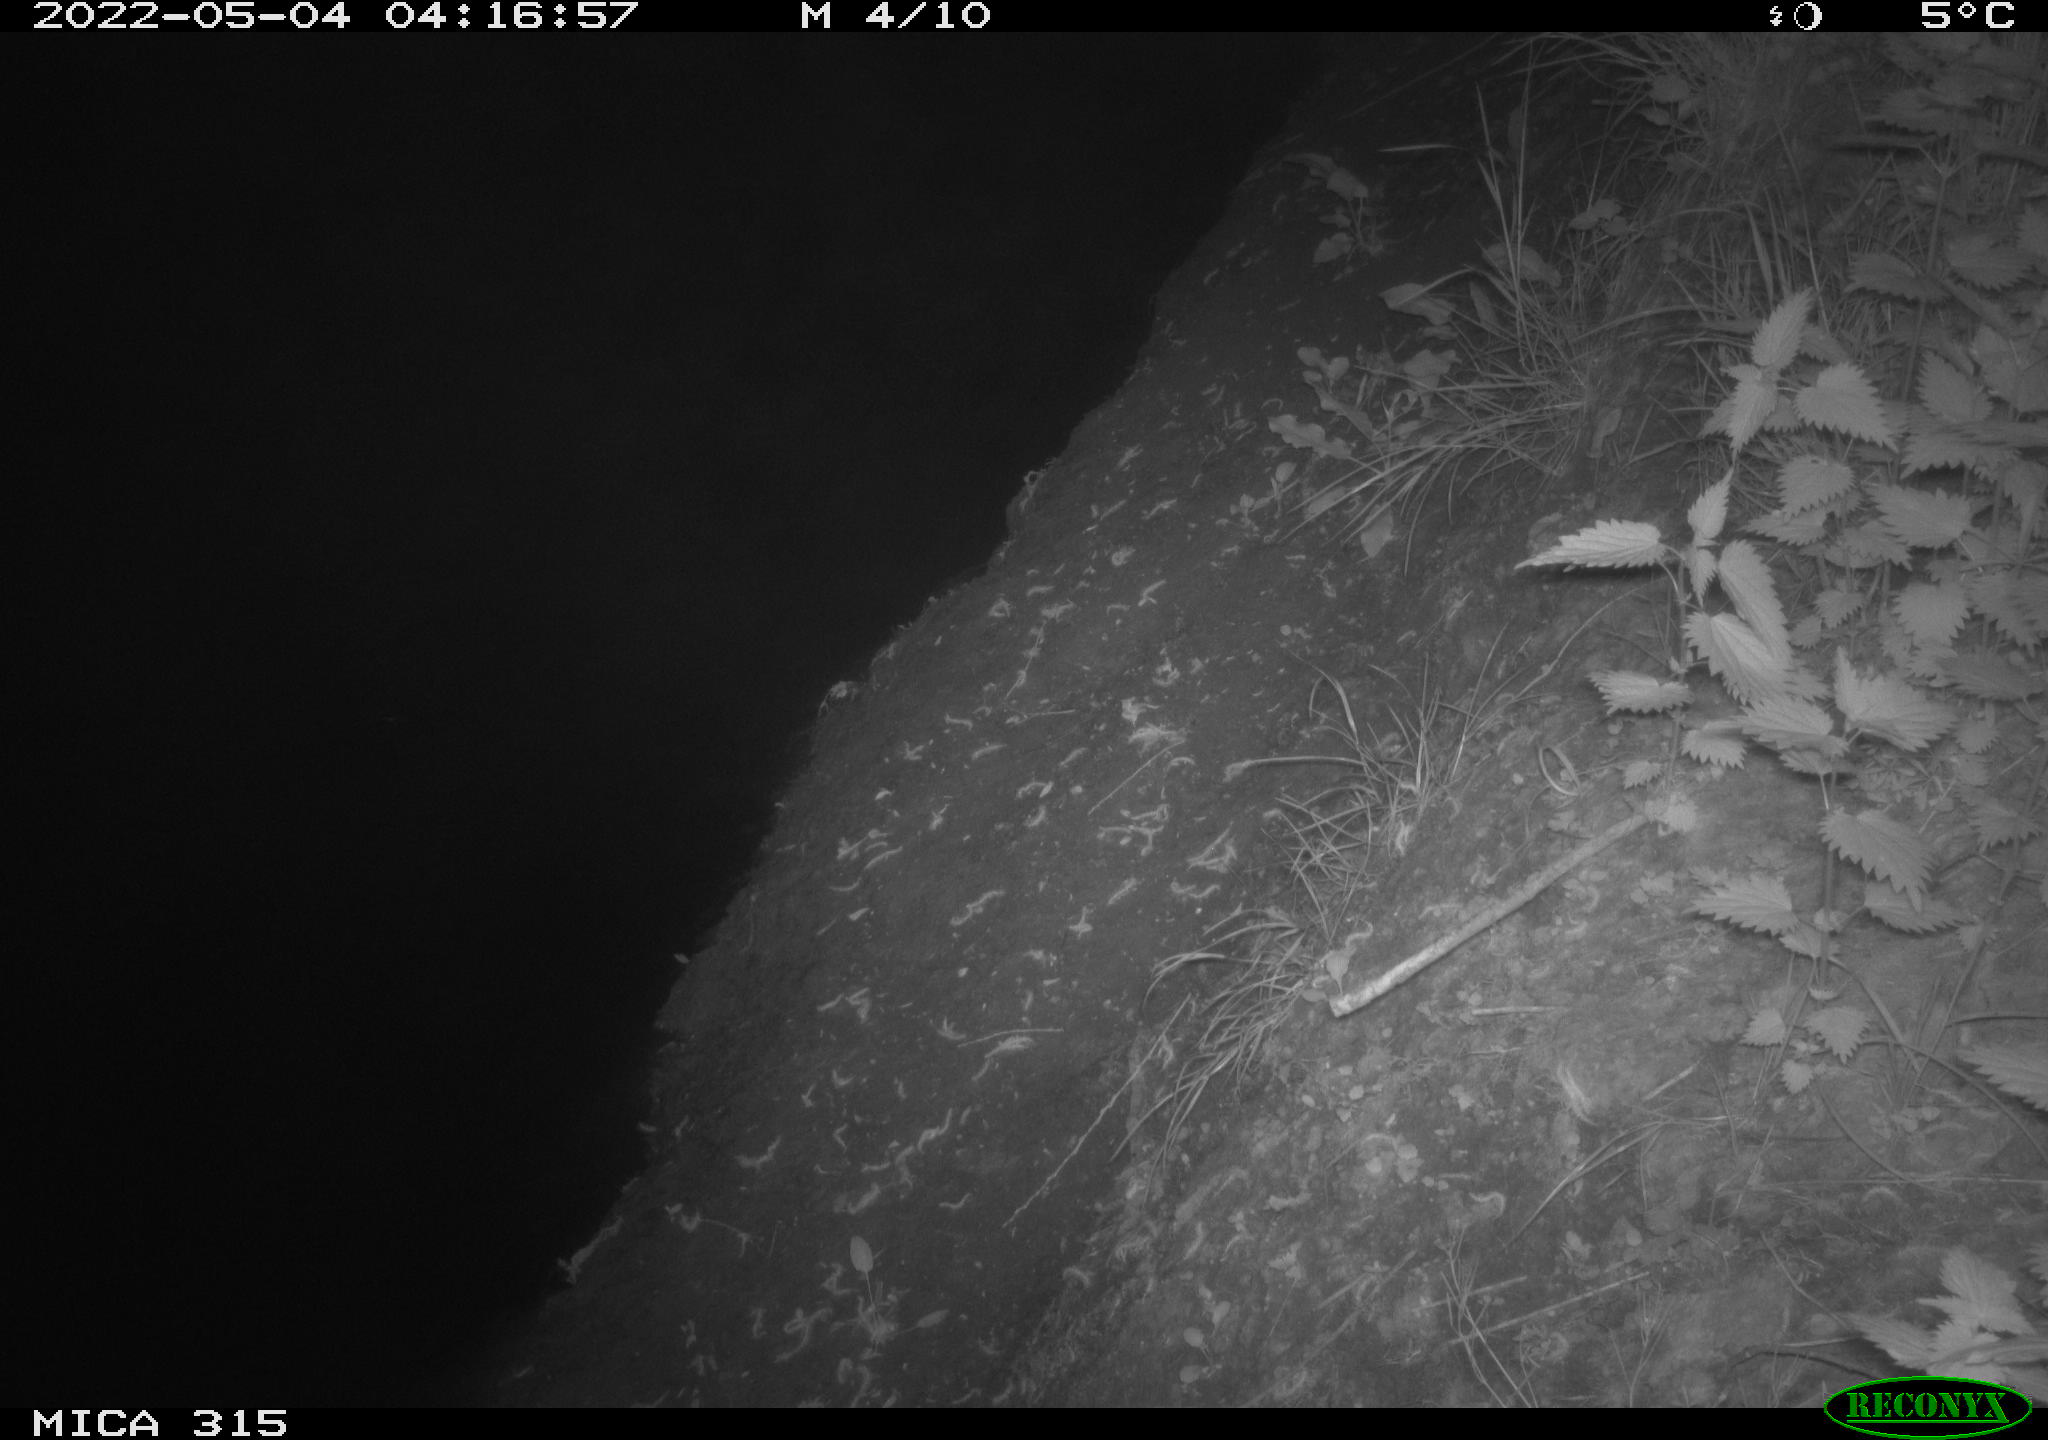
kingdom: Animalia
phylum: Chordata
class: Aves
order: Anseriformes
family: Anatidae
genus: Anas
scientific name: Anas platyrhynchos
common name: Mallard
